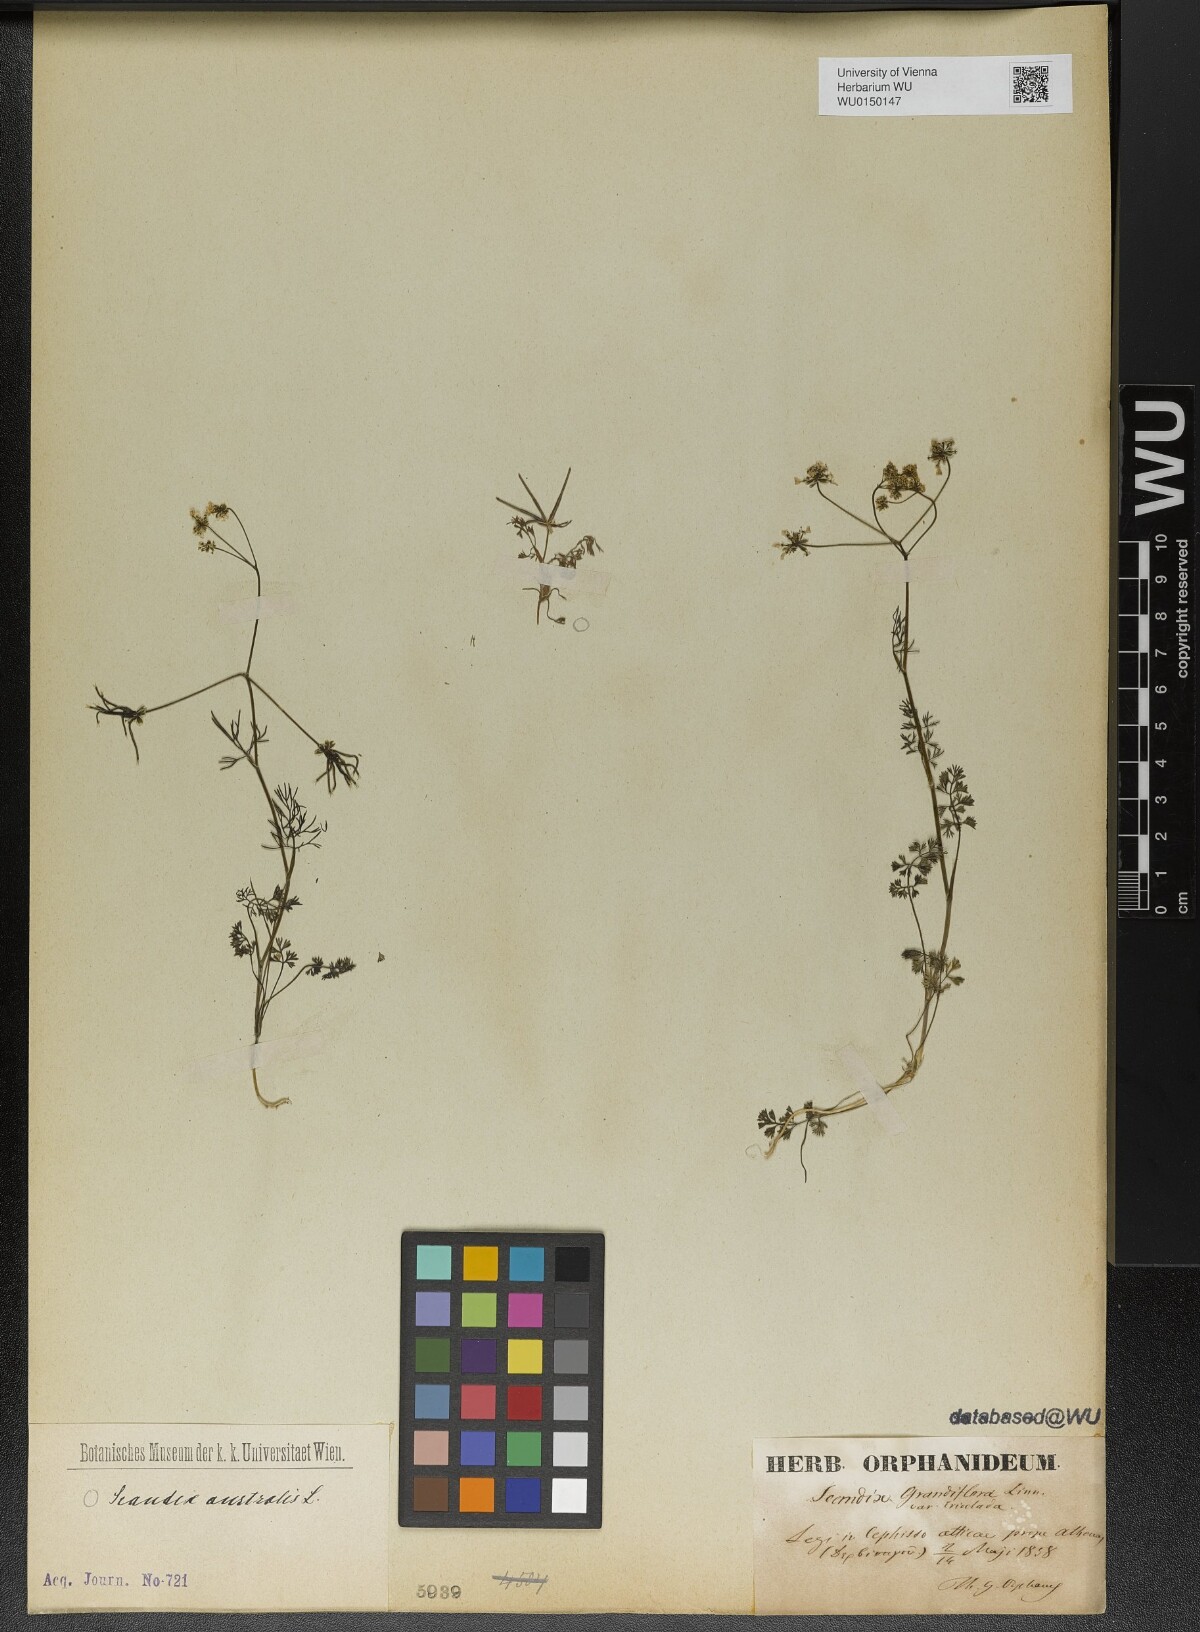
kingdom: Plantae
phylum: Tracheophyta
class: Magnoliopsida
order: Apiales
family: Apiaceae
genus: Scandix
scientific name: Scandix australis
